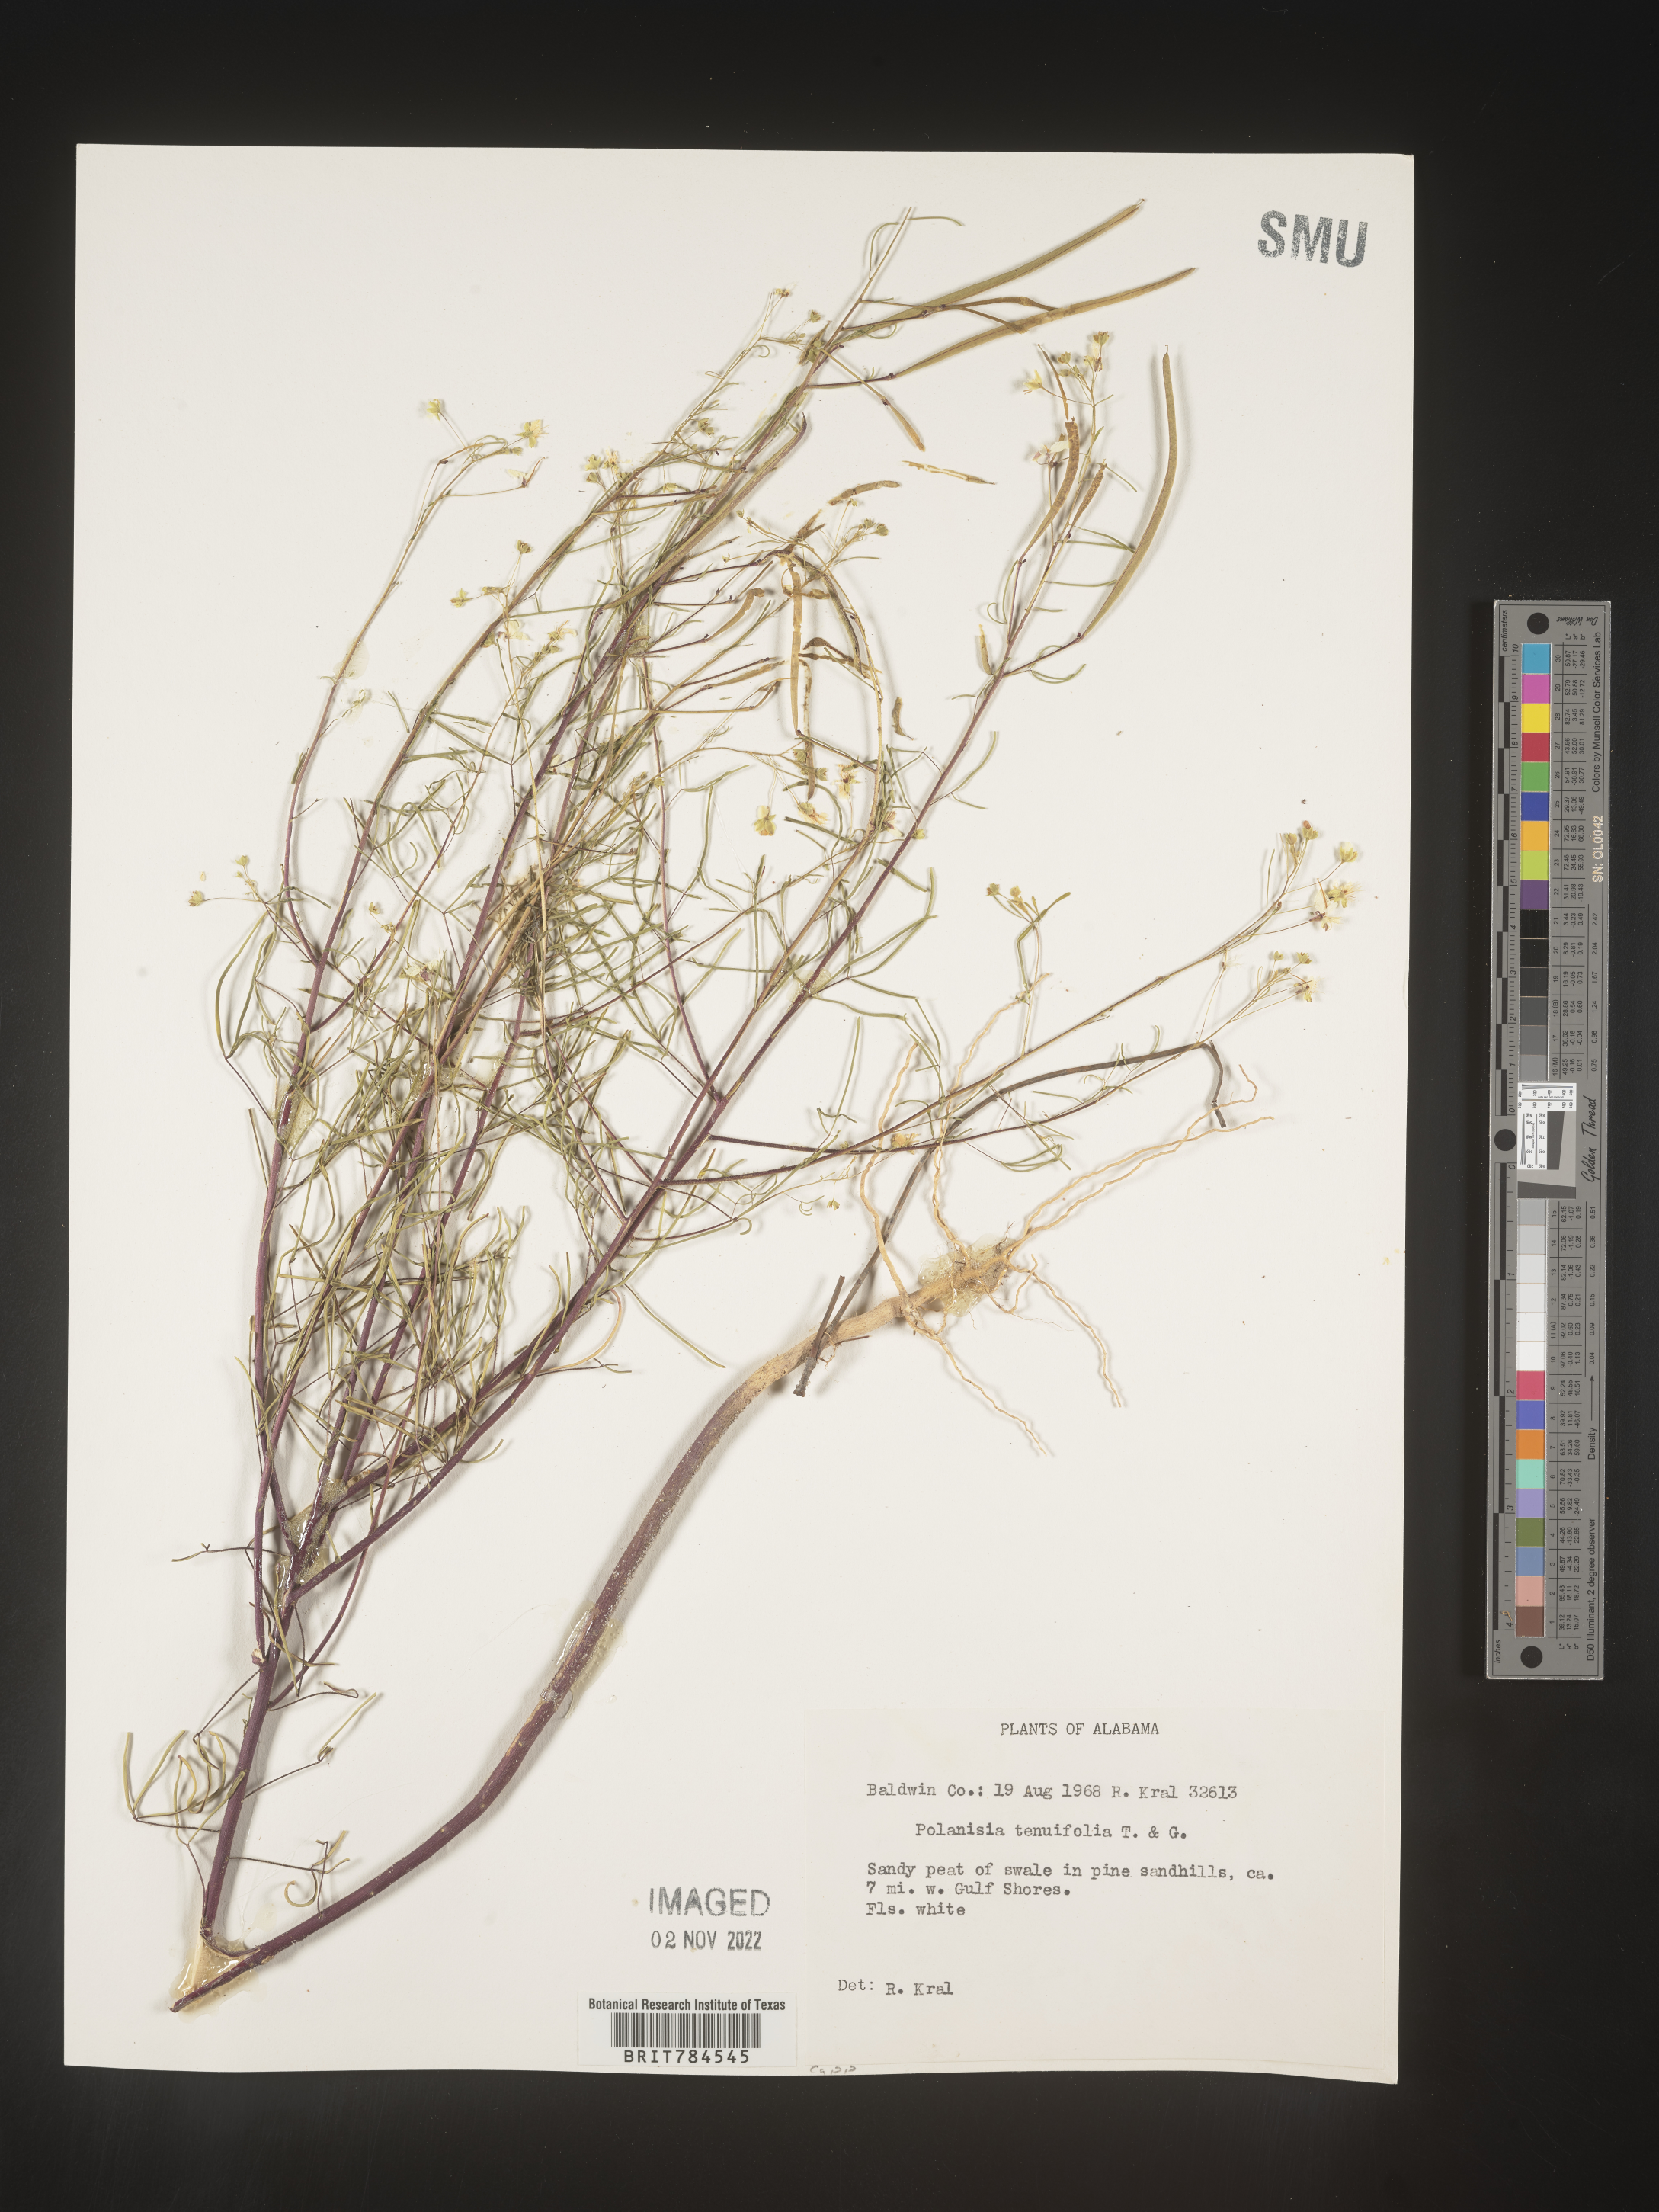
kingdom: Plantae
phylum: Tracheophyta
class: Magnoliopsida
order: Brassicales
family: Cleomaceae
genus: Polanisia
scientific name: Polanisia
